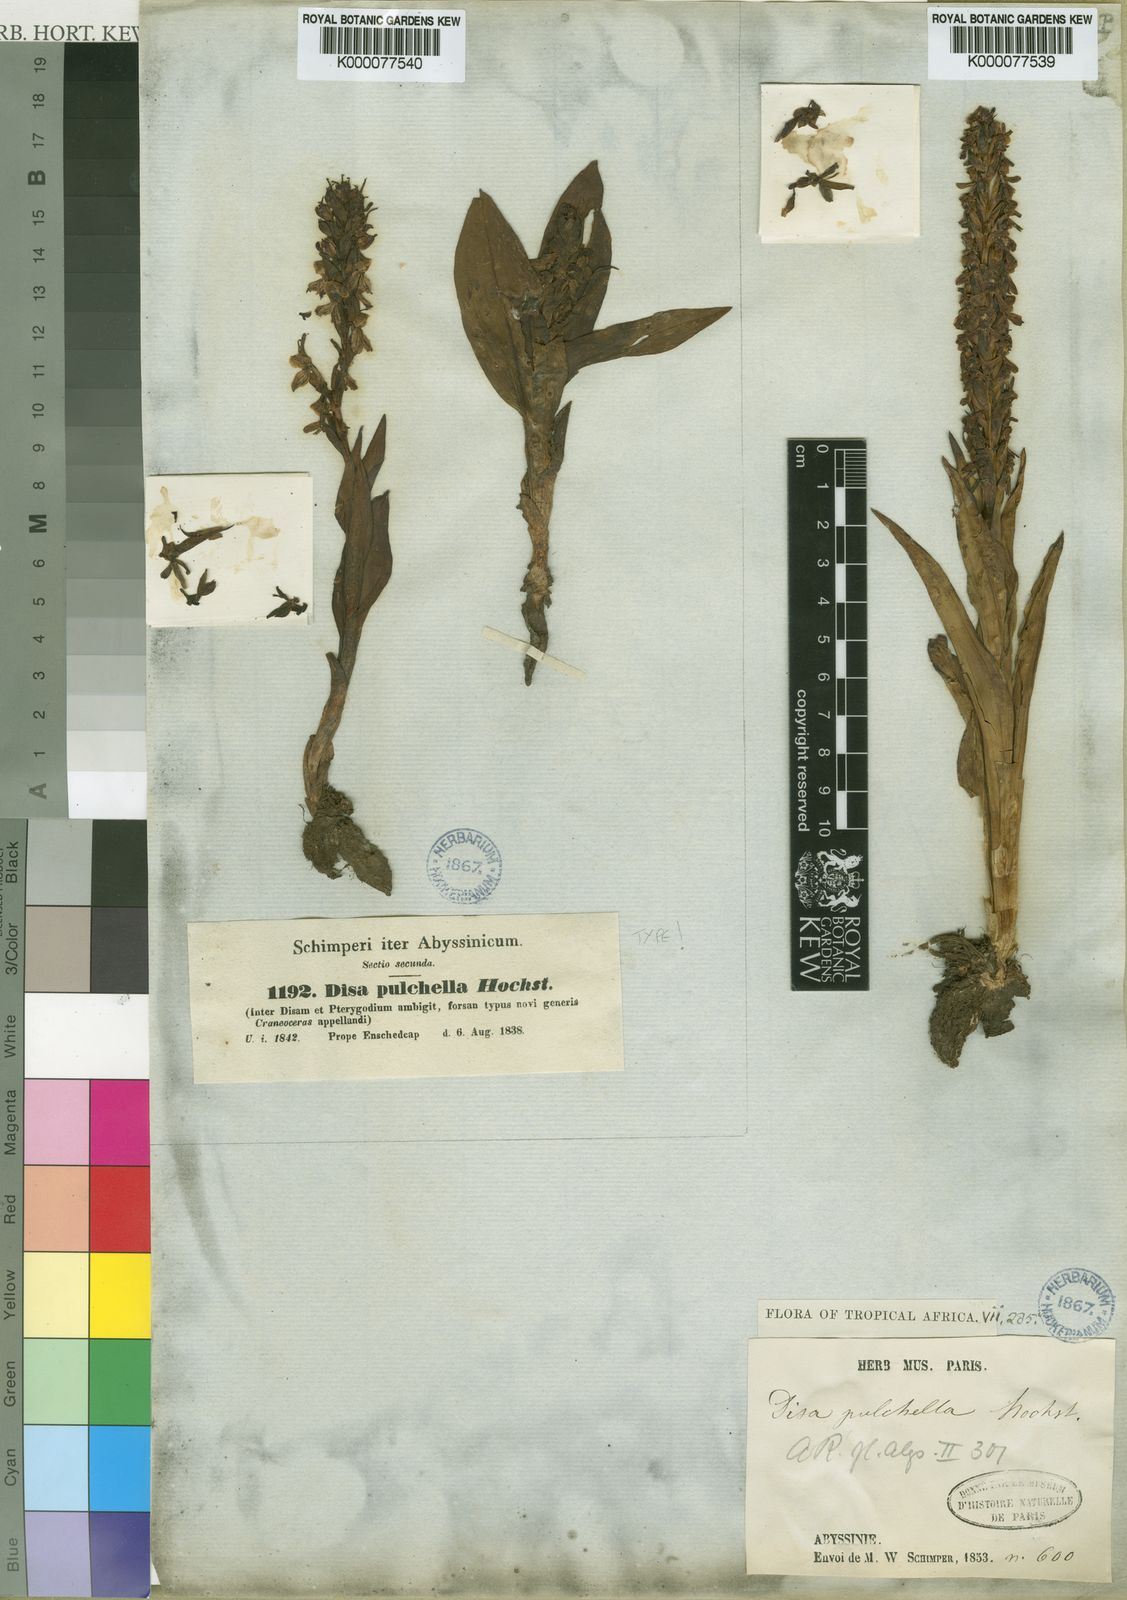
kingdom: Plantae
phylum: Tracheophyta
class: Liliopsida
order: Asparagales
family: Orchidaceae
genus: Disa
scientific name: Disa pulchella
